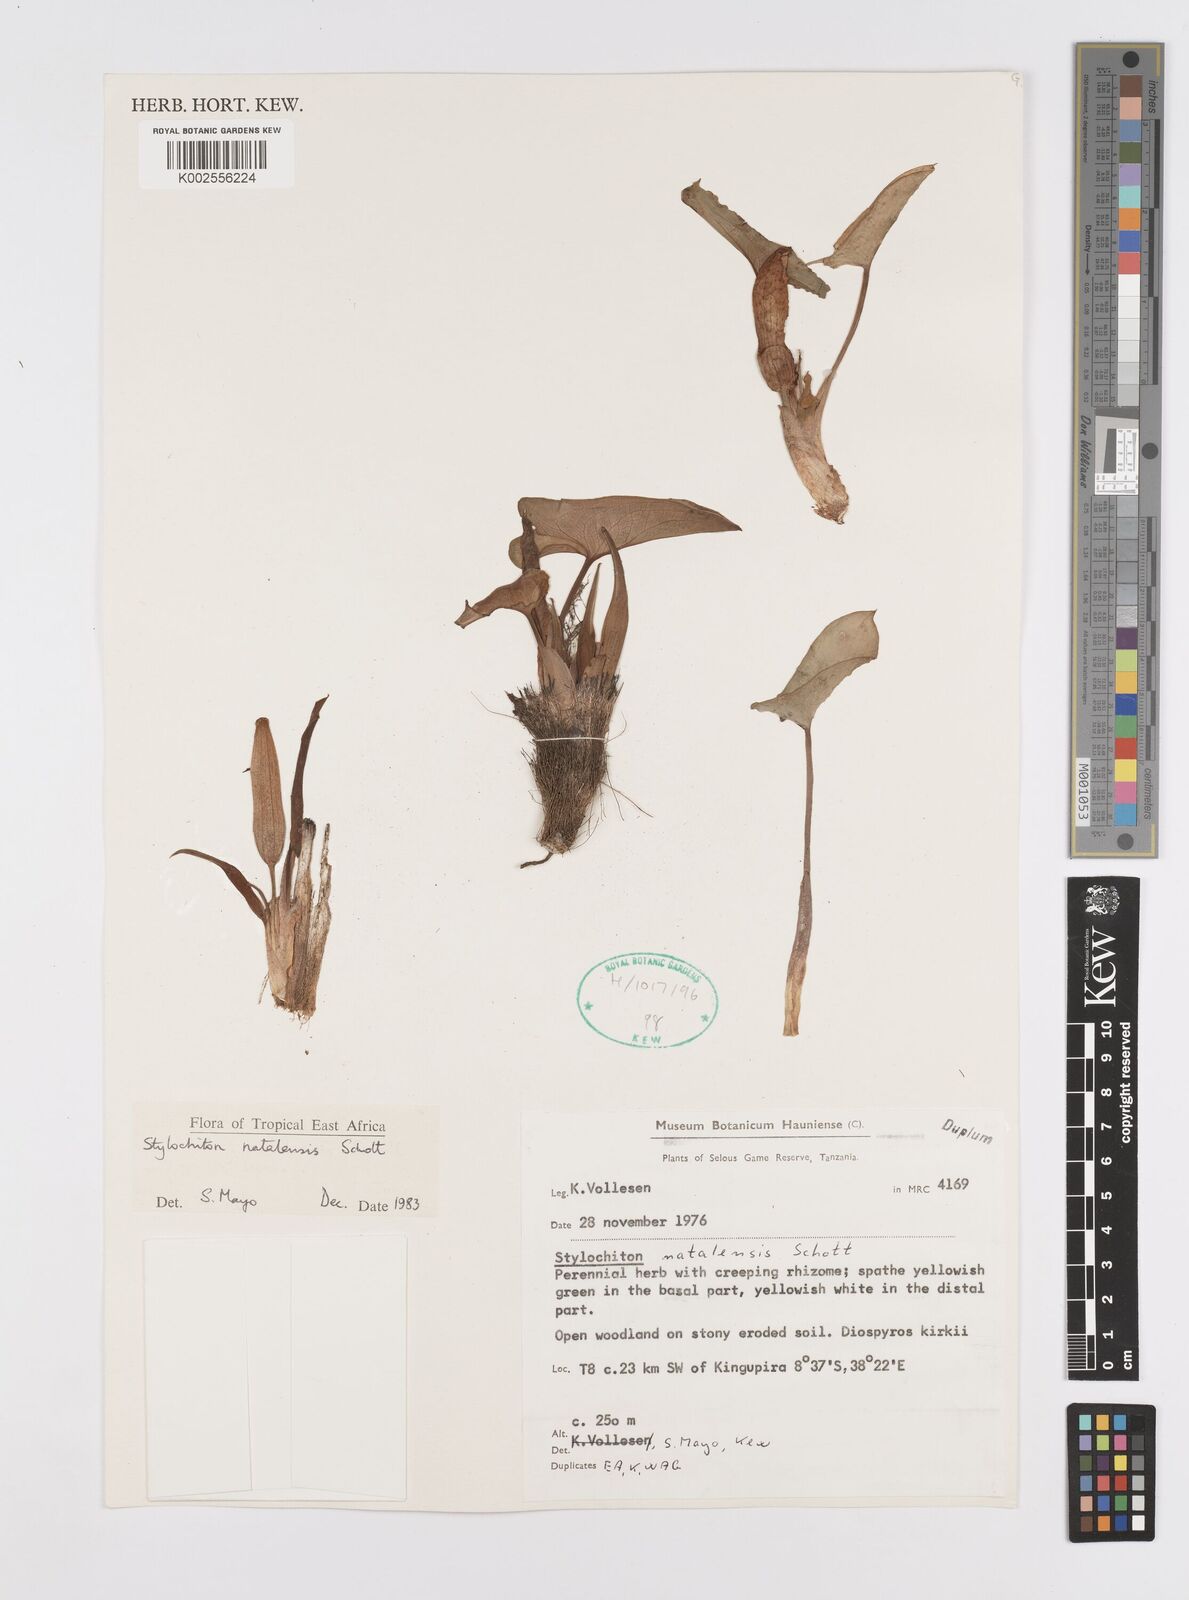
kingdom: Plantae
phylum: Tracheophyta
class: Liliopsida
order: Alismatales
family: Araceae
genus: Stylochaeton
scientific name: Stylochaeton natalense
